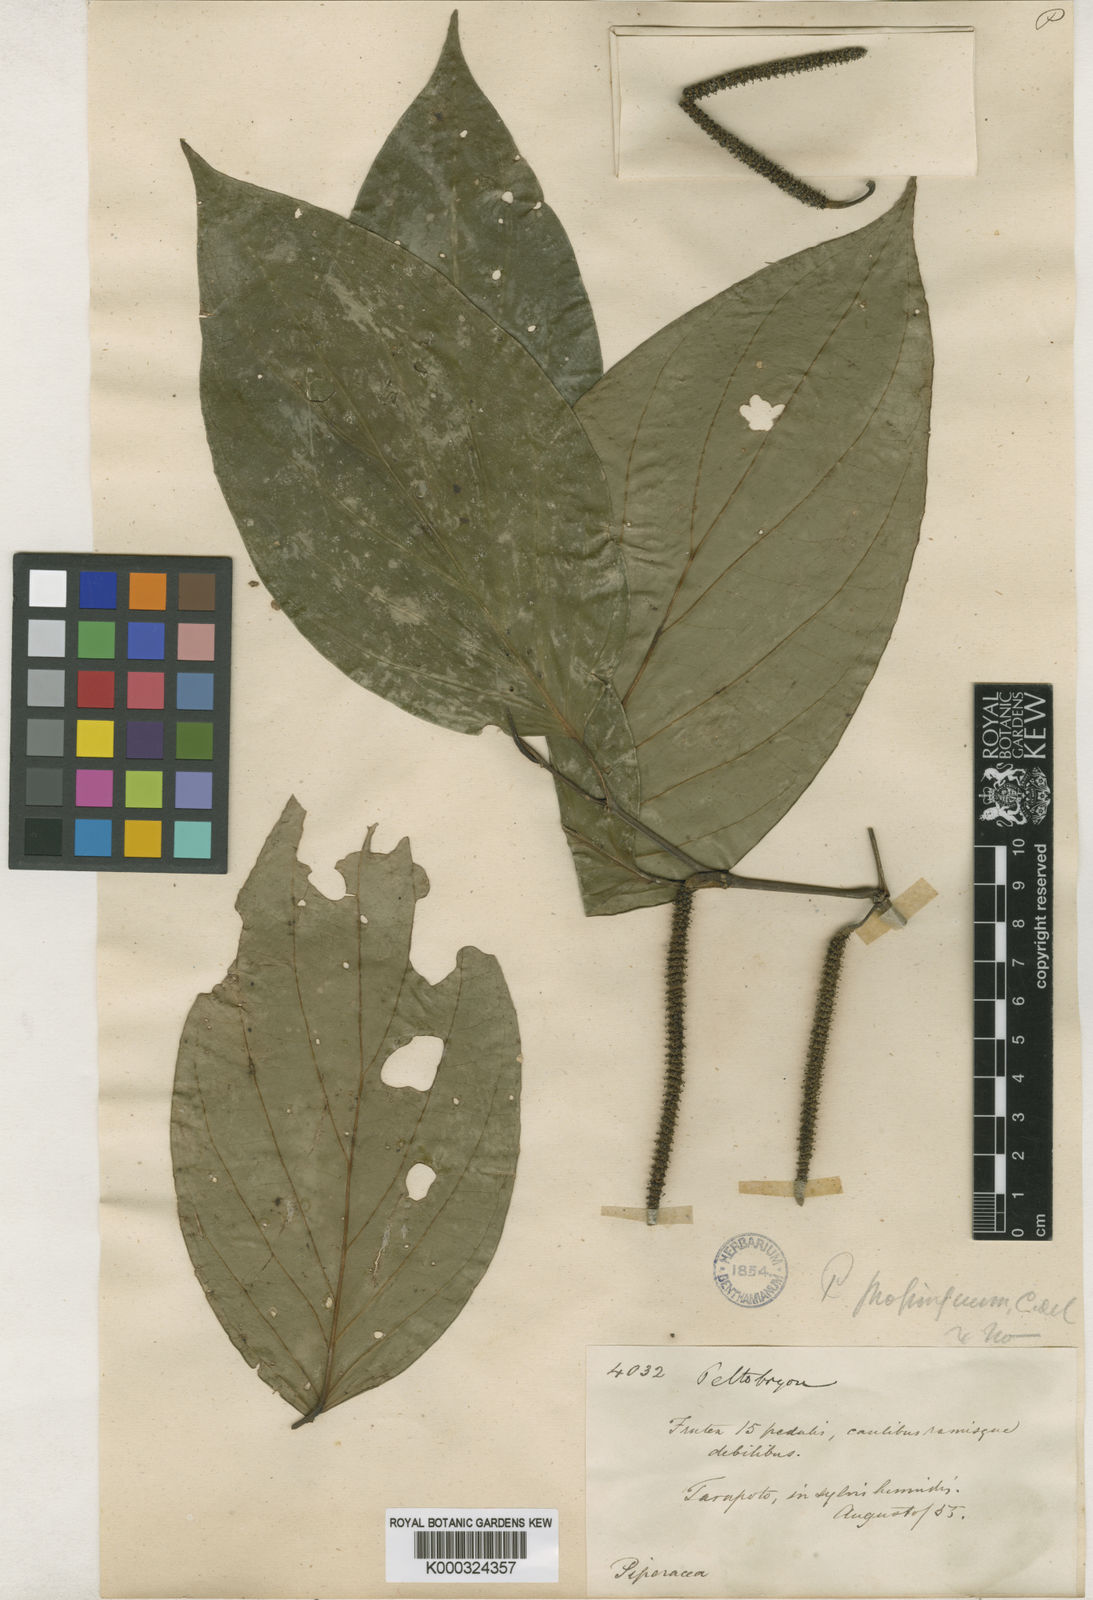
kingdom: Plantae
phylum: Tracheophyta
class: Magnoliopsida
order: Piperales
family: Piperaceae
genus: Piper
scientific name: Piper crassinervium
